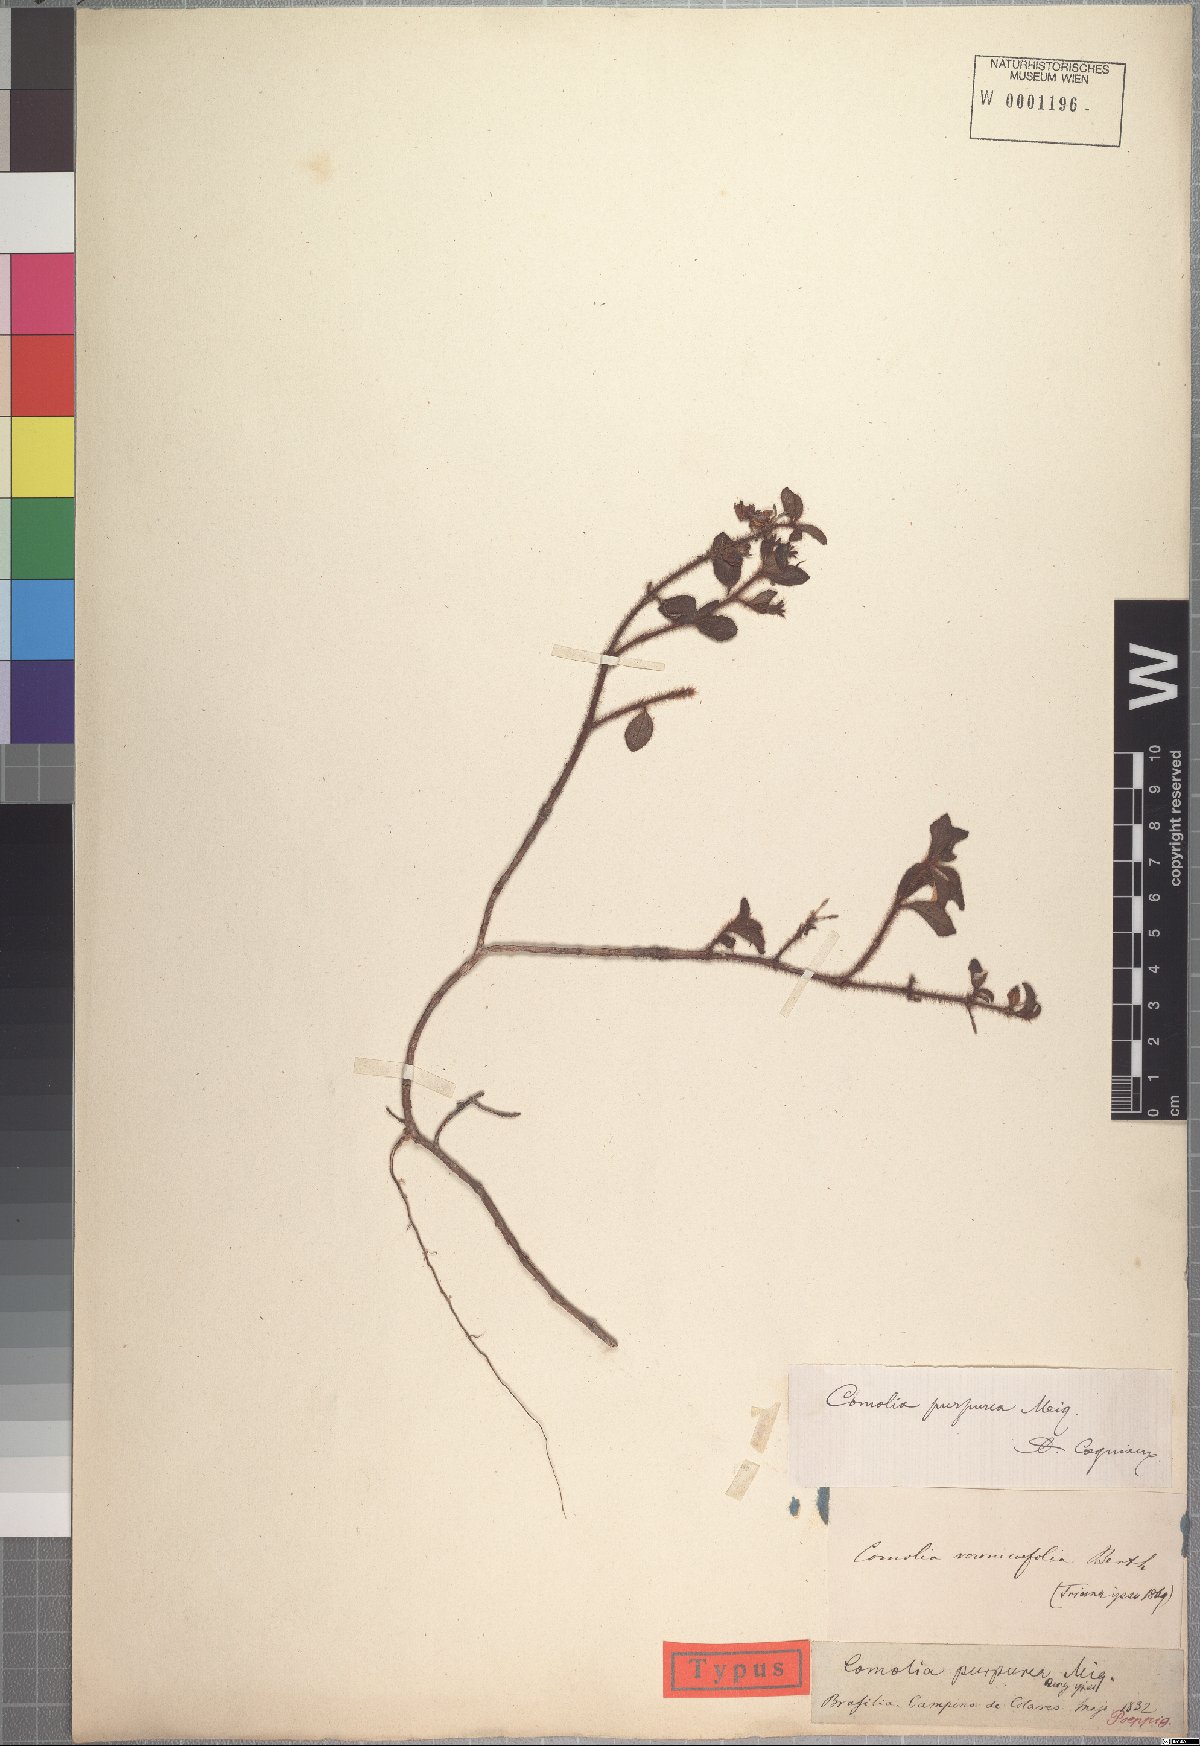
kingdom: Plantae
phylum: Tracheophyta
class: Magnoliopsida
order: Myrtales
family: Melastomataceae
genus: Comolia
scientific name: Comolia villosa
